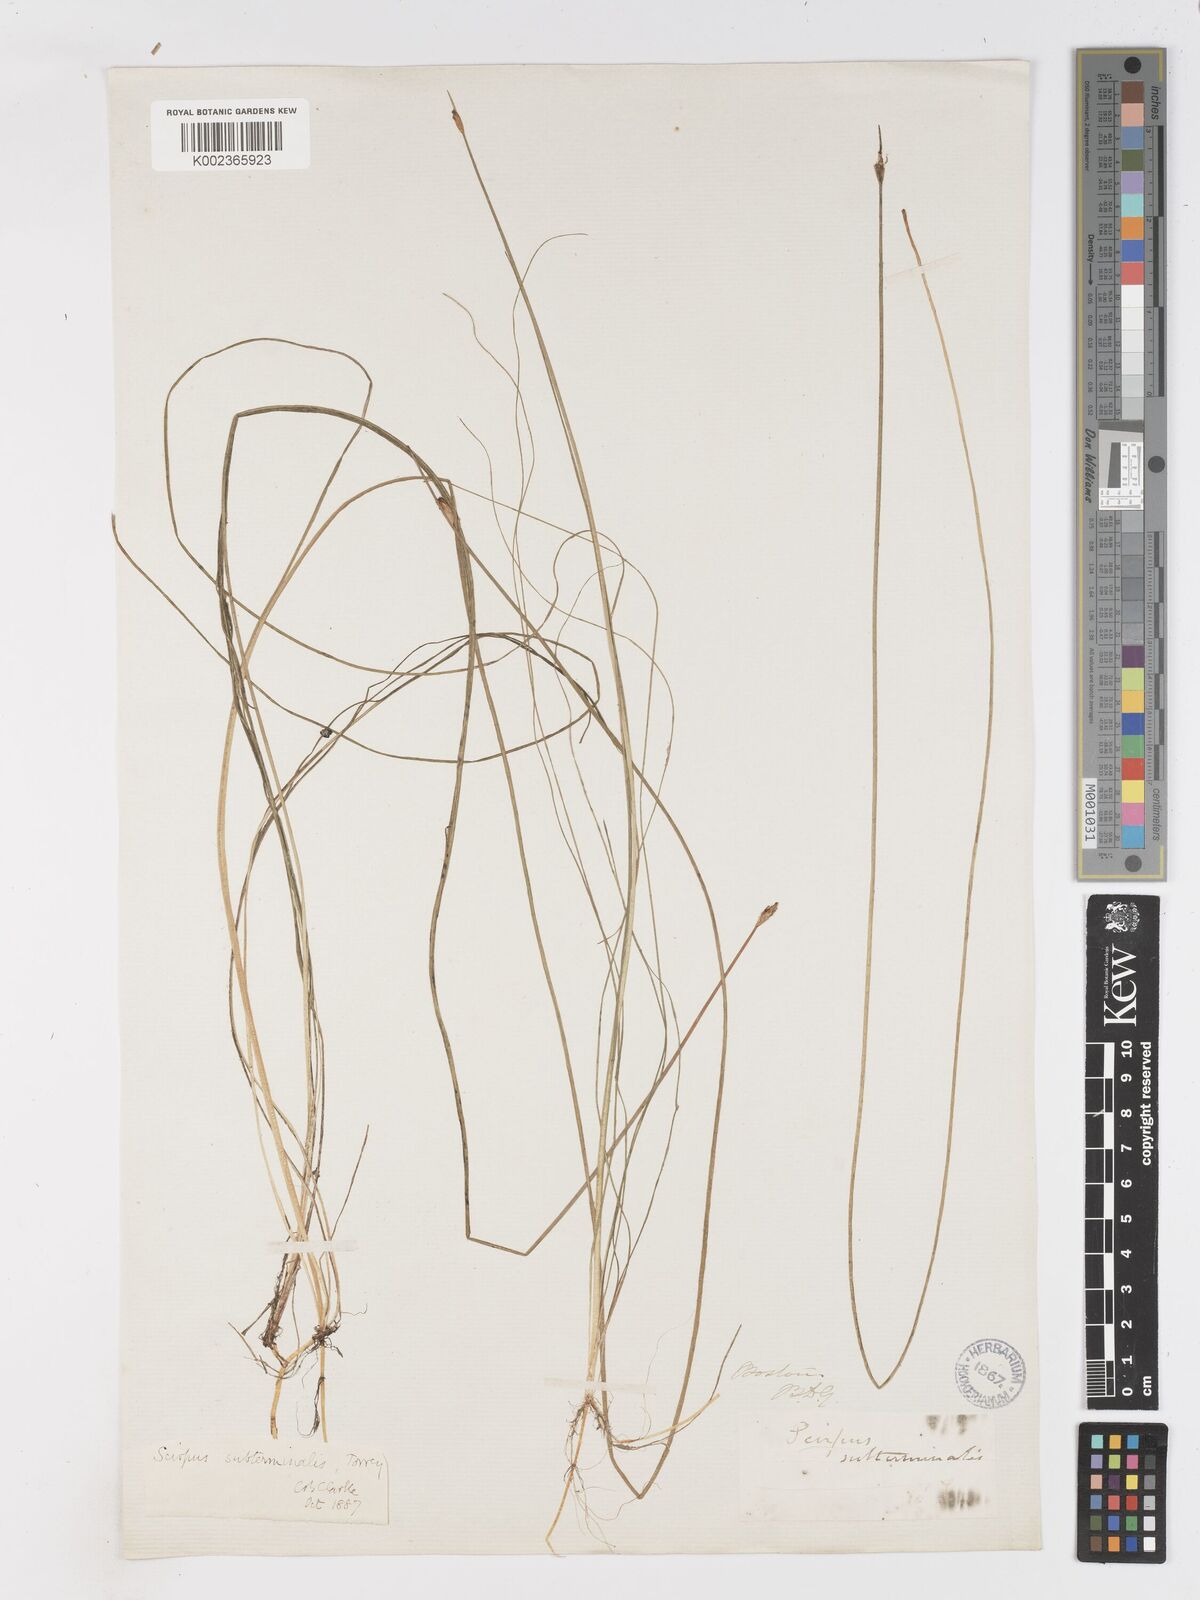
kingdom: Plantae
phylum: Tracheophyta
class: Liliopsida
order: Poales
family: Cyperaceae
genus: Schoenoplectus
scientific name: Schoenoplectus subterminalis
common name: Swaying bulrush
